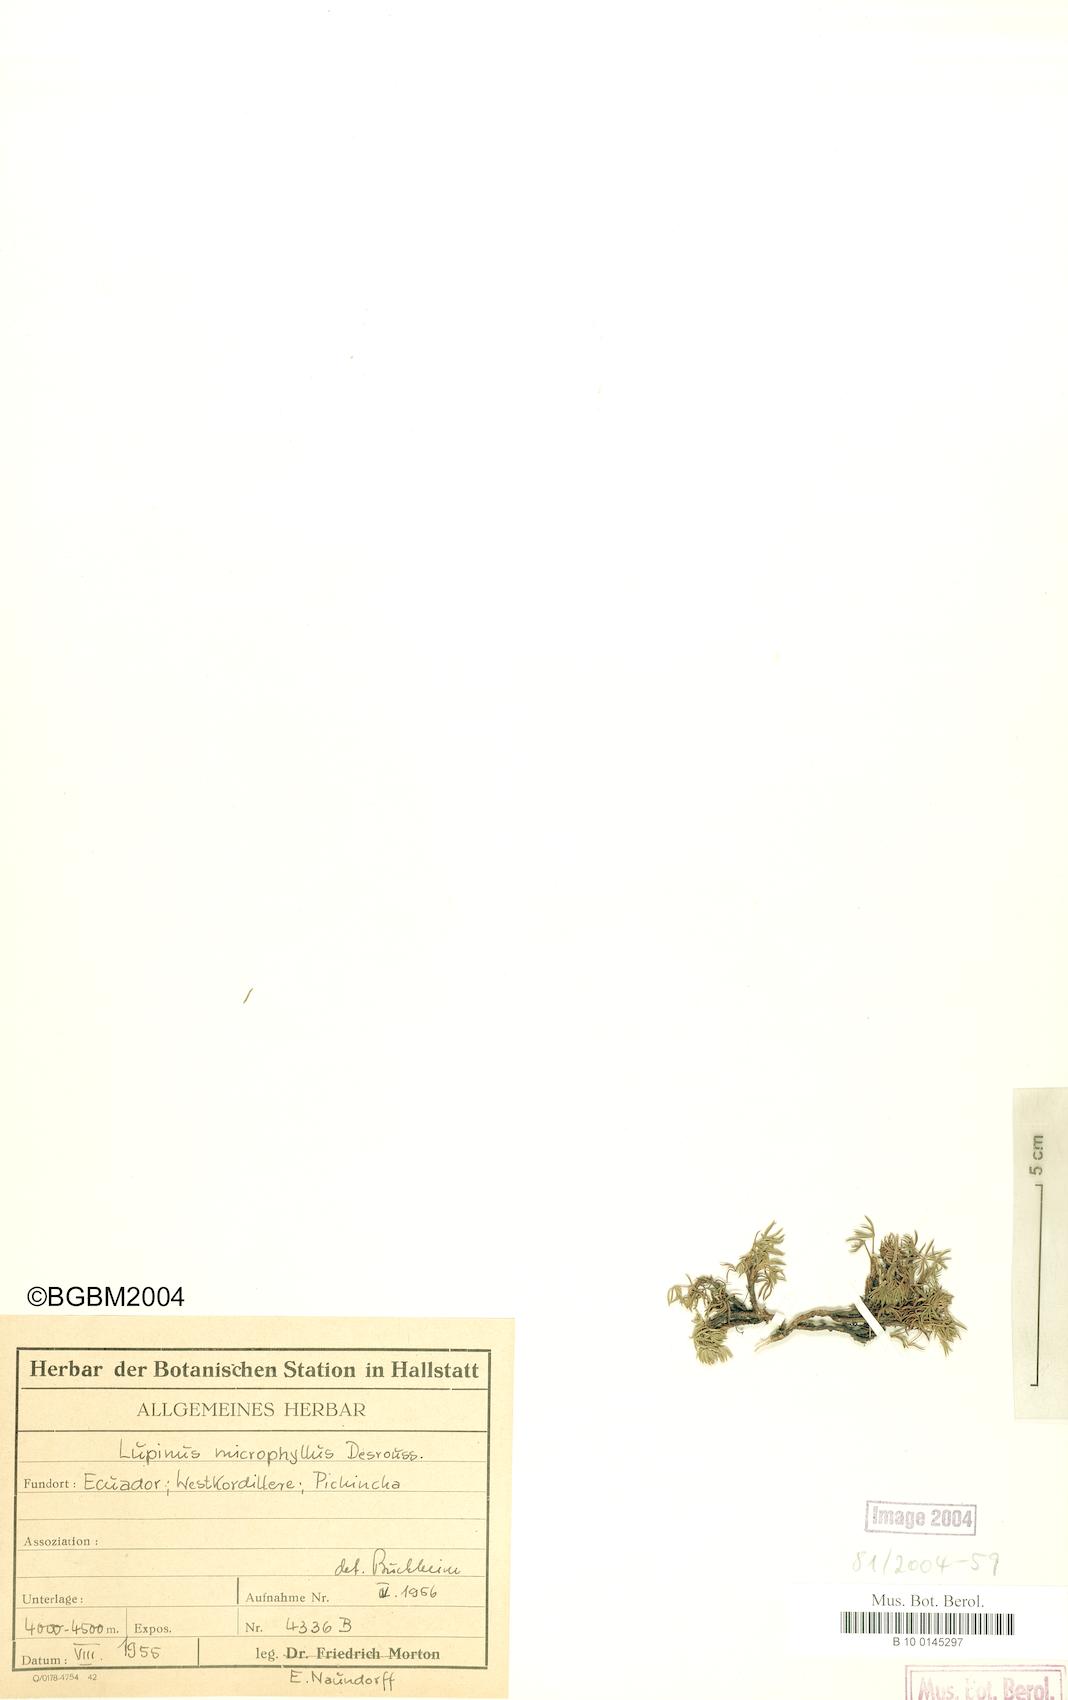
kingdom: Plantae
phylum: Tracheophyta
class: Magnoliopsida
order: Fabales
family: Fabaceae
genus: Lupinus
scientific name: Lupinus microphyllus
